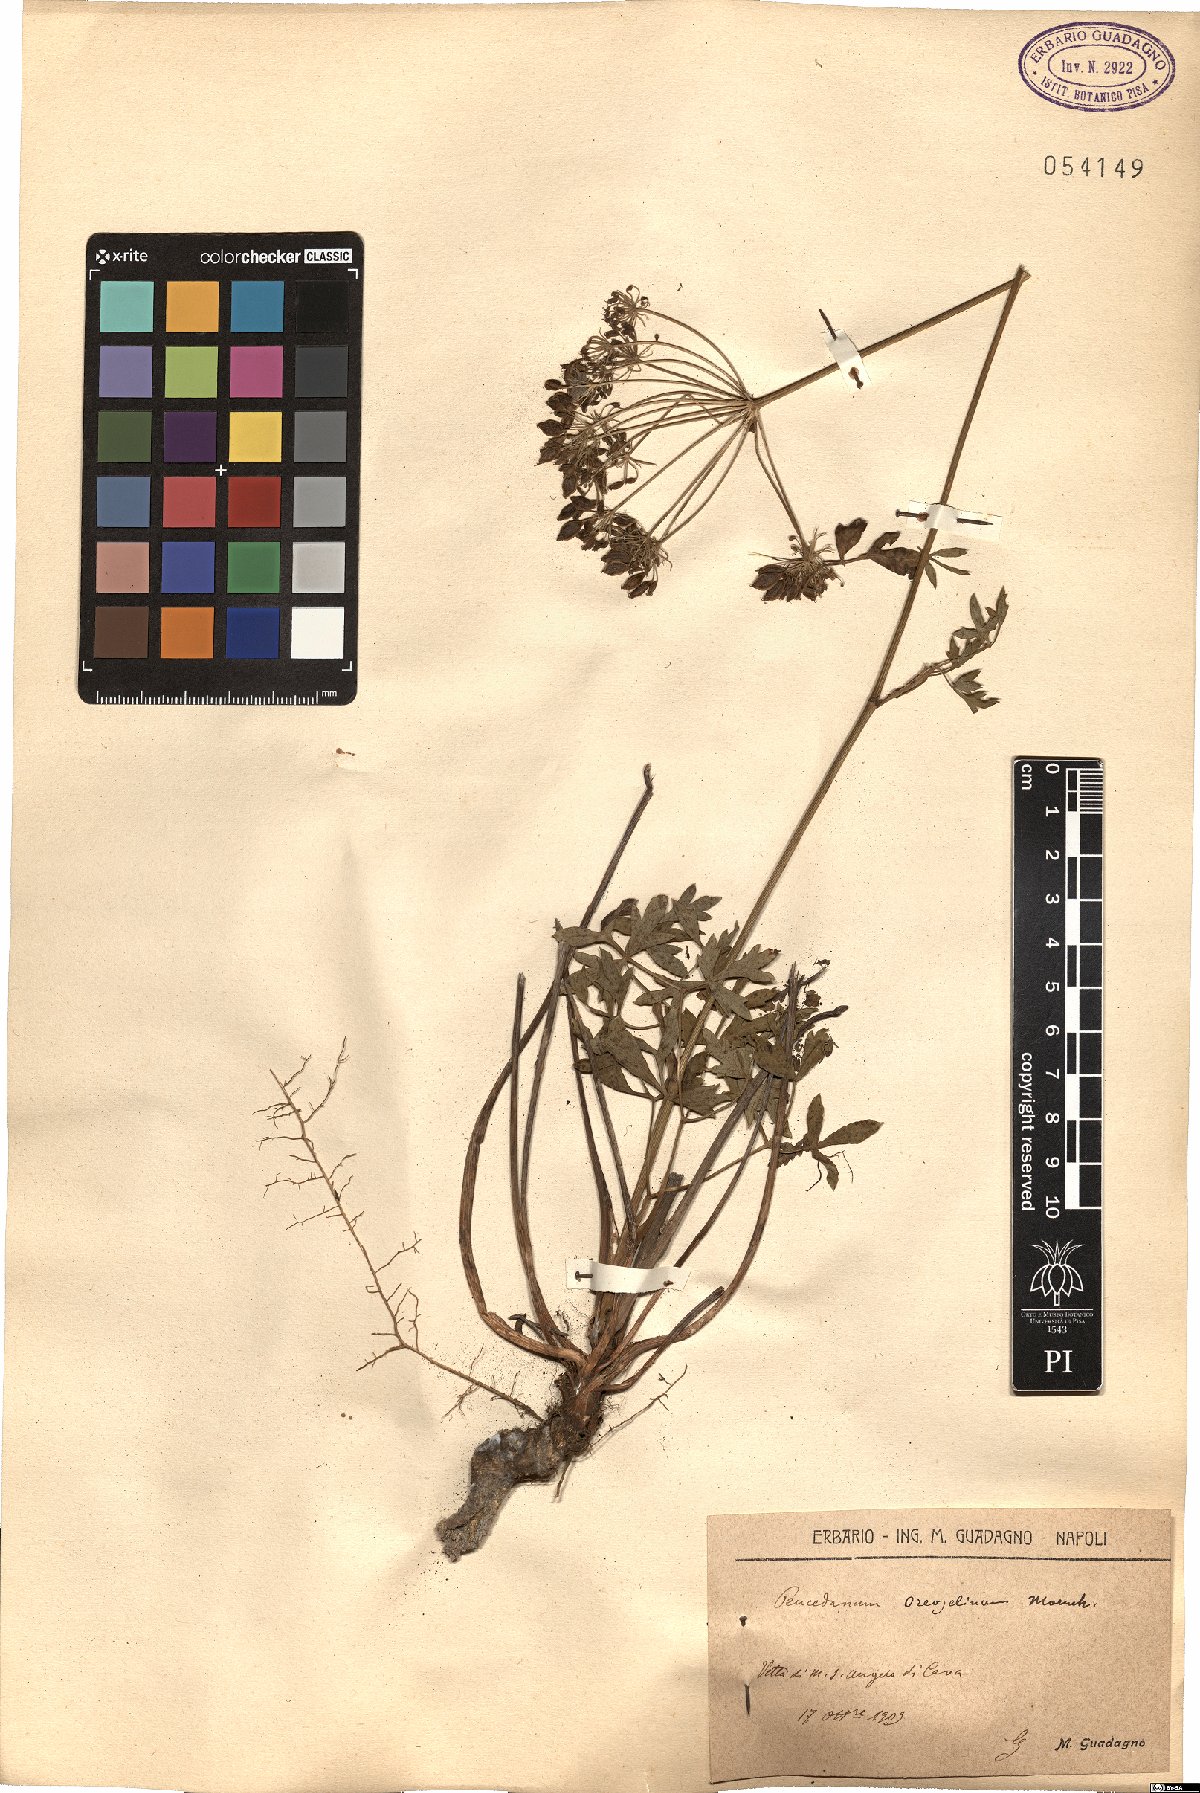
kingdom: Plantae
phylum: Tracheophyta
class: Magnoliopsida
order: Apiales
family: Apiaceae
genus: Oreoselinum
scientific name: Oreoselinum nigrum
